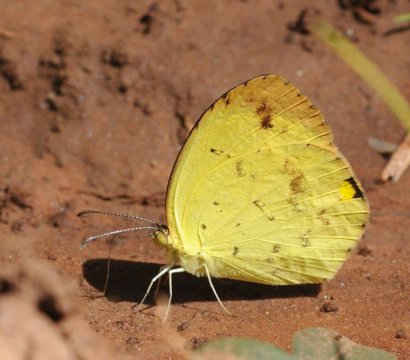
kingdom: Animalia
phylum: Arthropoda
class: Insecta
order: Lepidoptera
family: Pieridae
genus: Eurema
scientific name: Eurema desjardinsii
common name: Angled Grass Yellow
